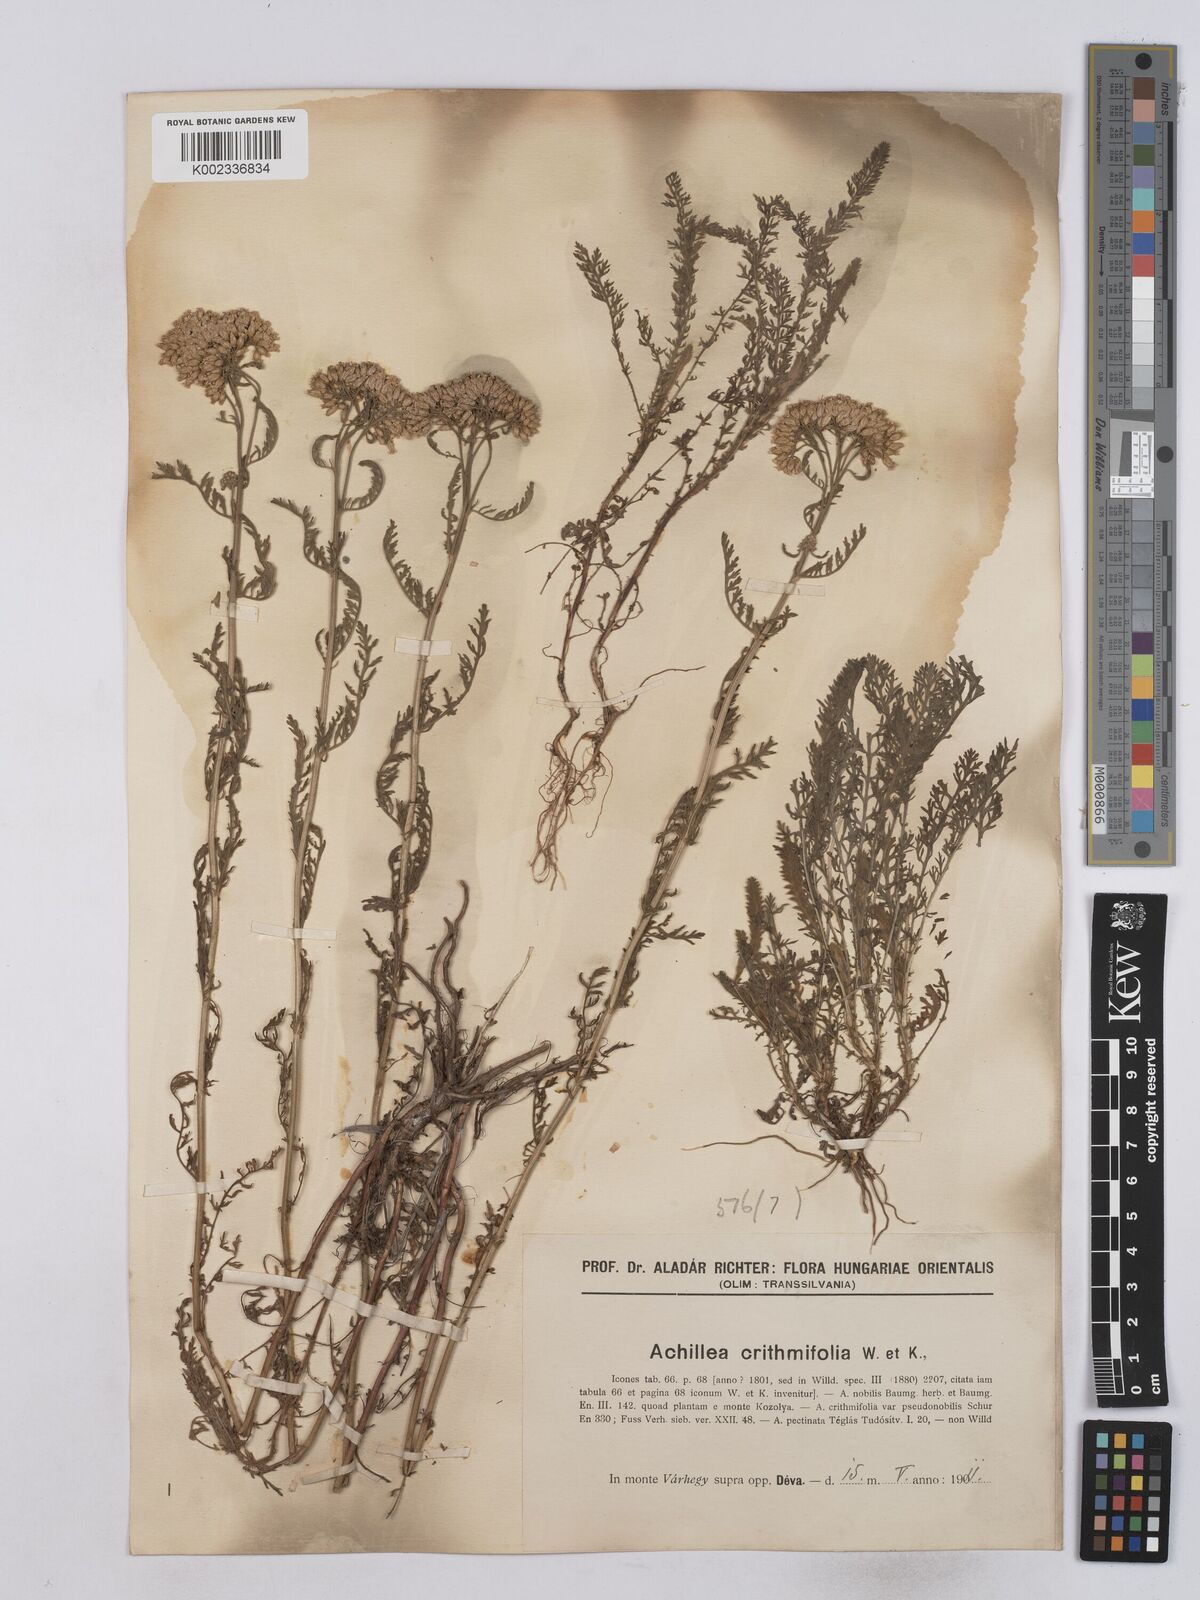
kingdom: Plantae
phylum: Tracheophyta
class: Magnoliopsida
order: Asterales
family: Asteraceae
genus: Achillea
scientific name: Achillea crithmifolia
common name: Yarrow
